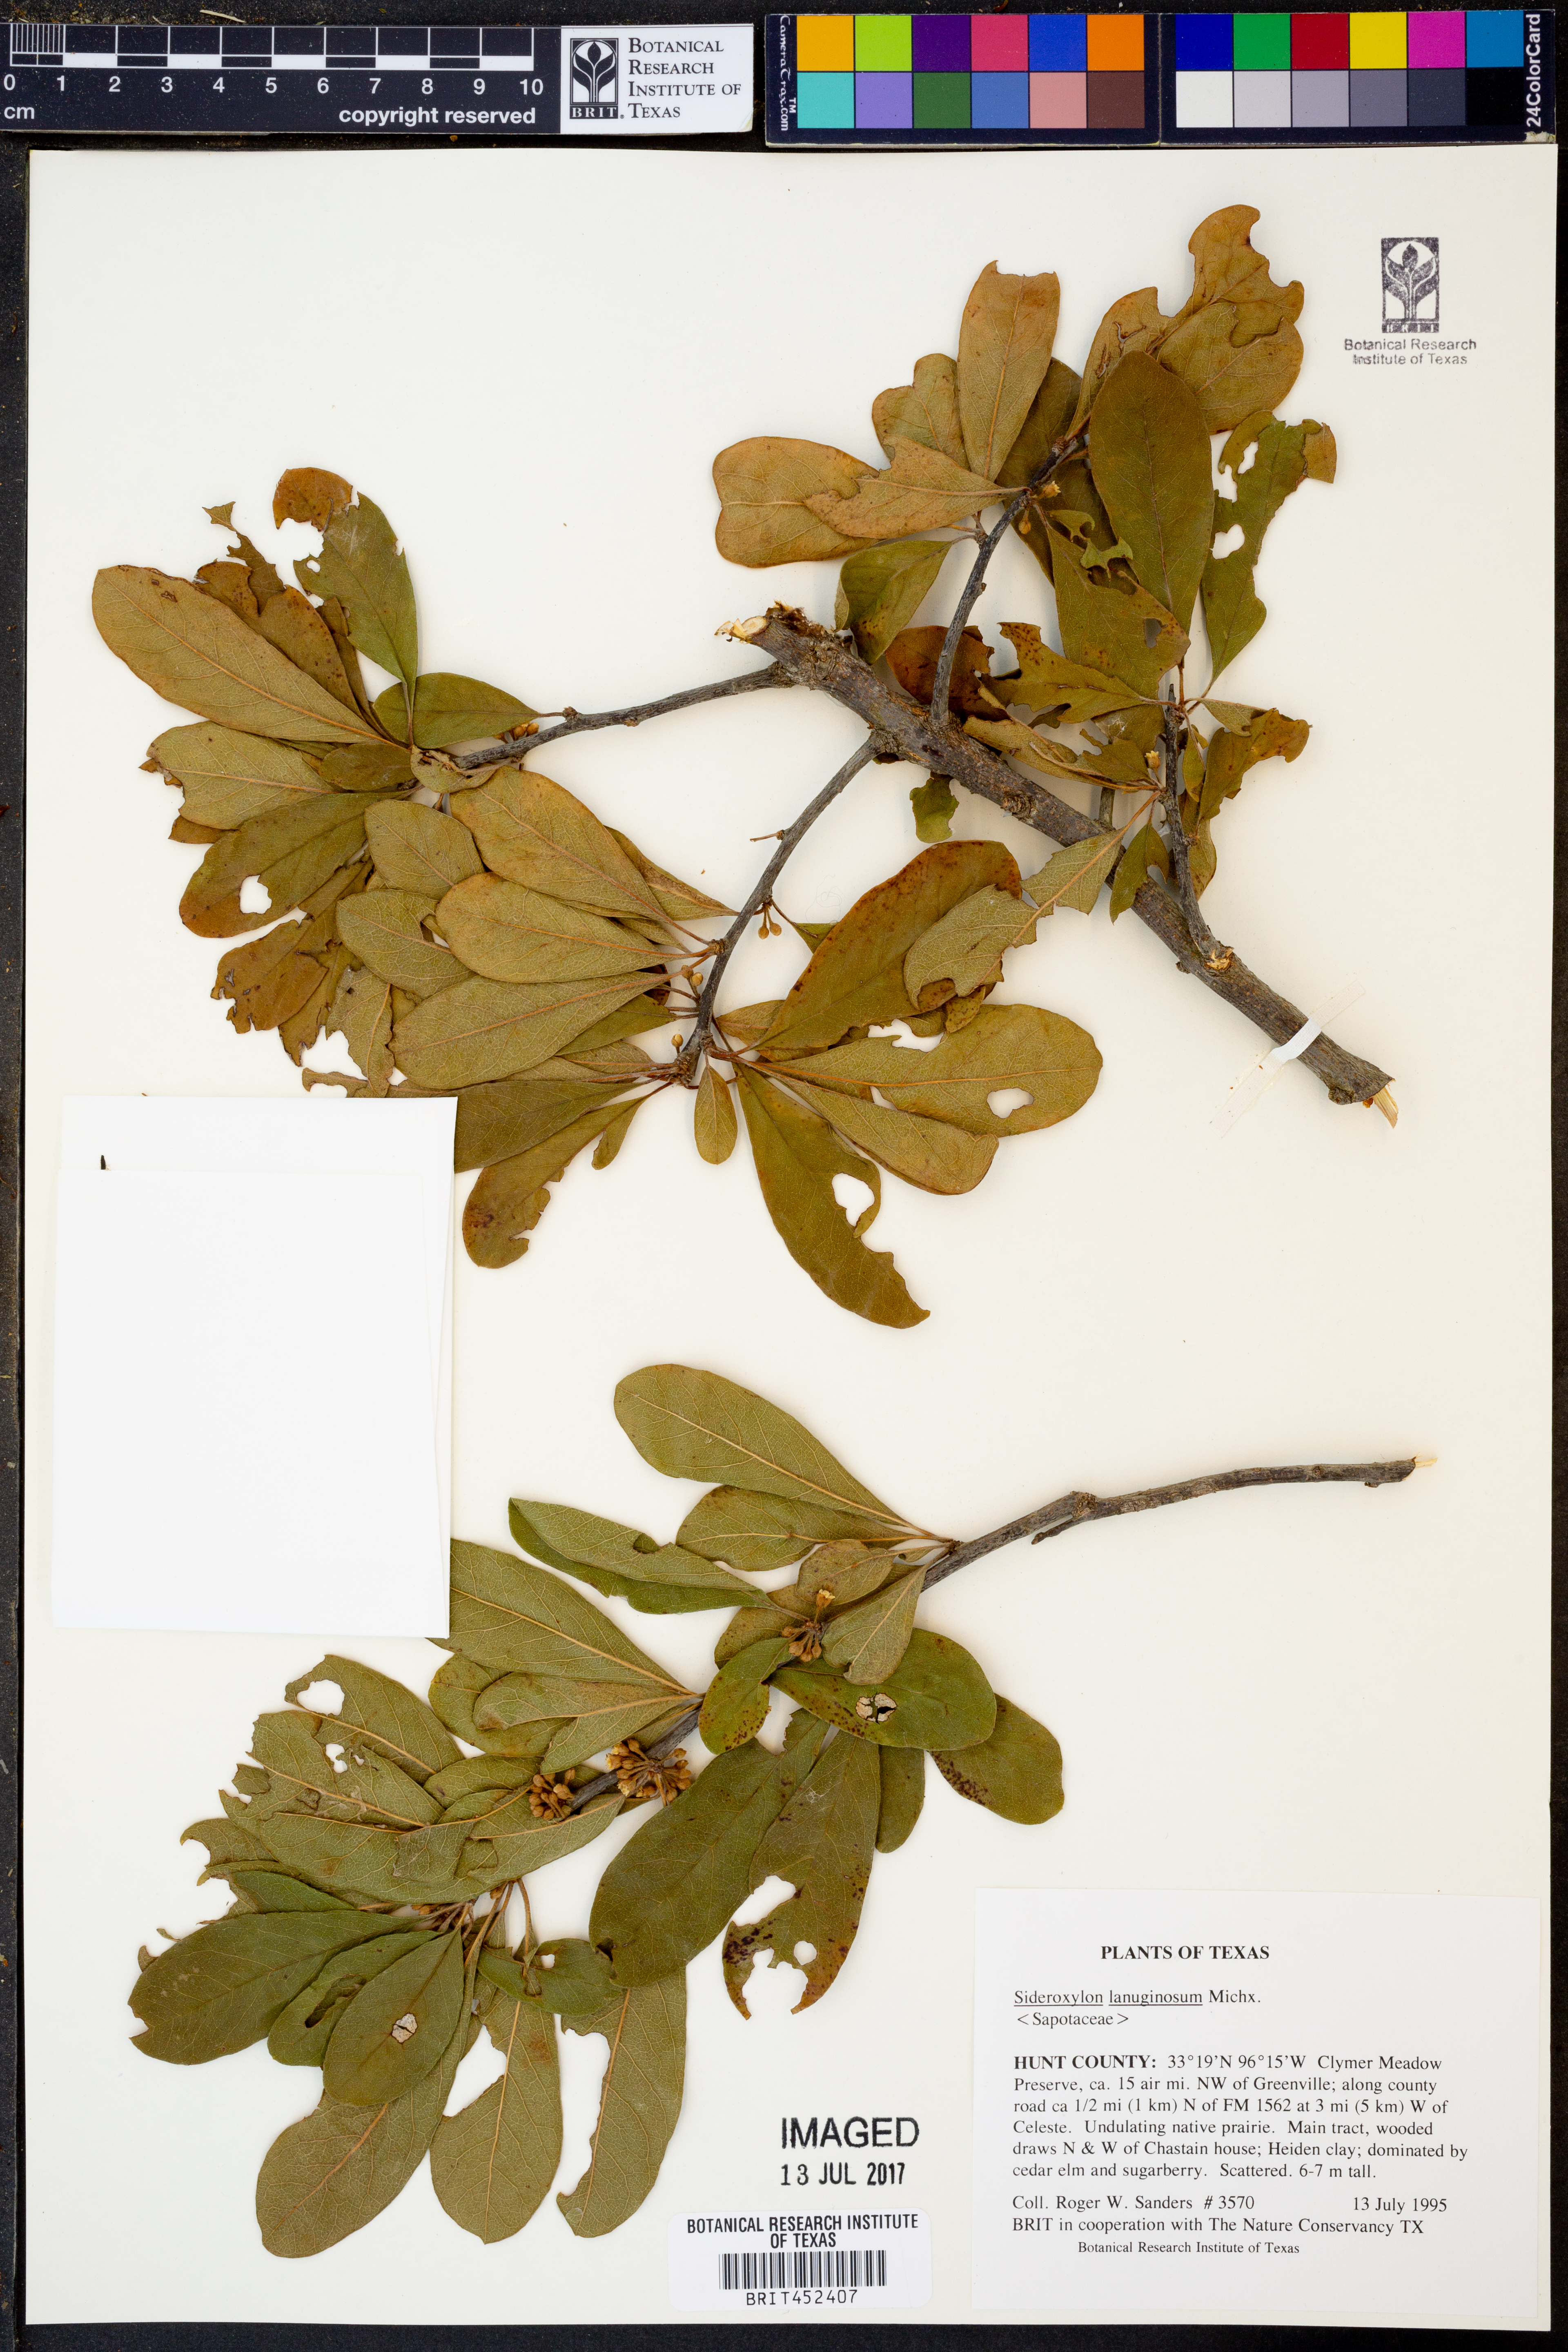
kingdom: Plantae
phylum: Tracheophyta
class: Magnoliopsida
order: Ericales
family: Sapotaceae
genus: Sideroxylon
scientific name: Sideroxylon lanuginosum
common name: Chittamwood
